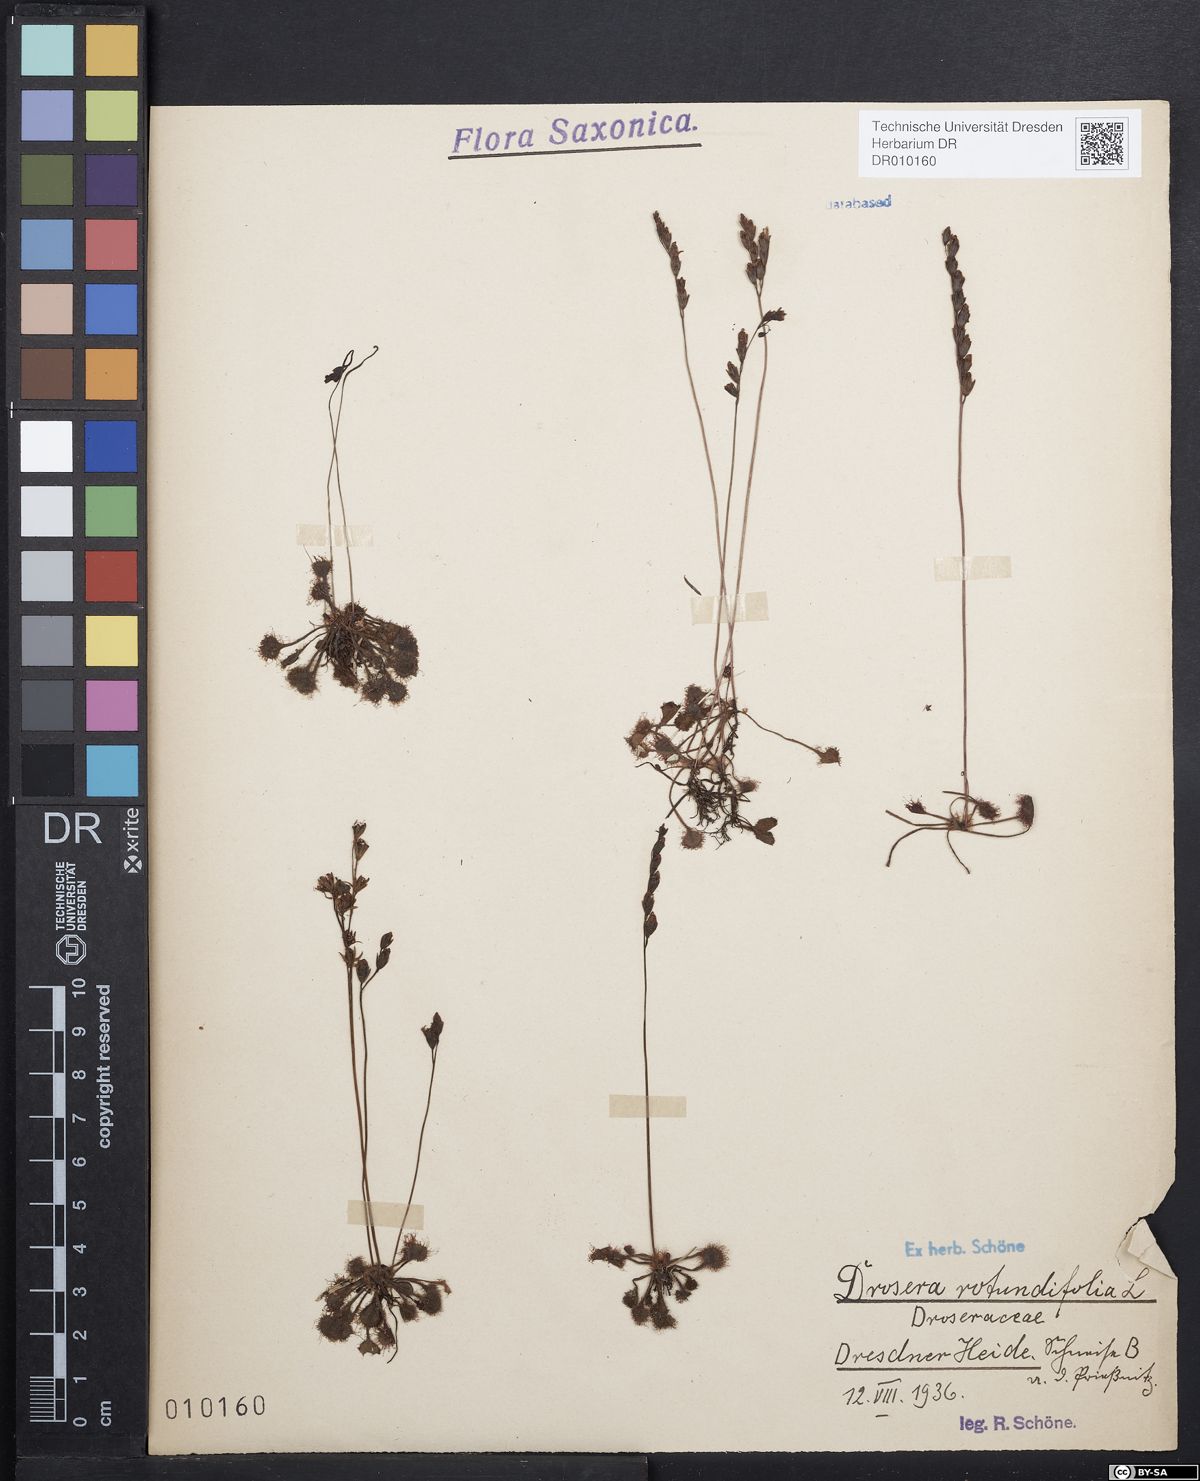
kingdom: Plantae
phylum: Tracheophyta
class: Magnoliopsida
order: Caryophyllales
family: Droseraceae
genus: Drosera
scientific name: Drosera rotundifolia
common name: Round-leaved sundew
